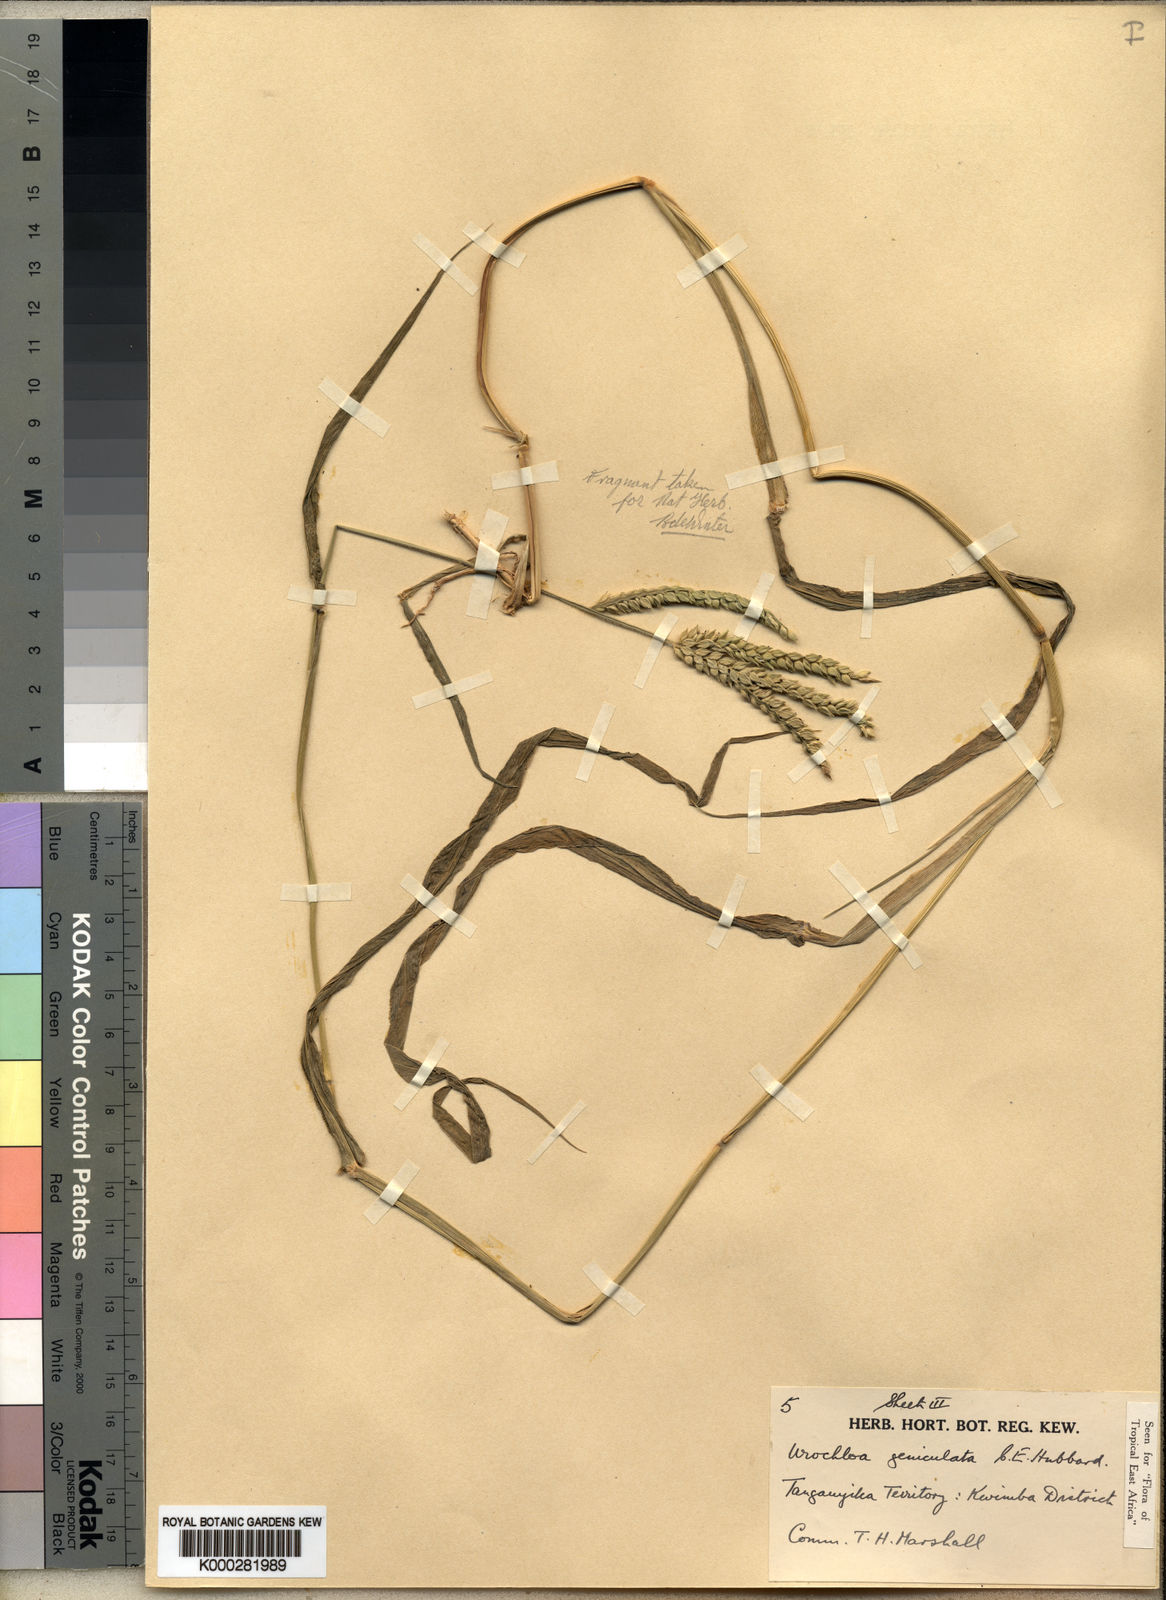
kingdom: Plantae
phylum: Tracheophyta
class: Liliopsida
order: Poales
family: Poaceae
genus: Urochloa
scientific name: Urochloa brachyura
